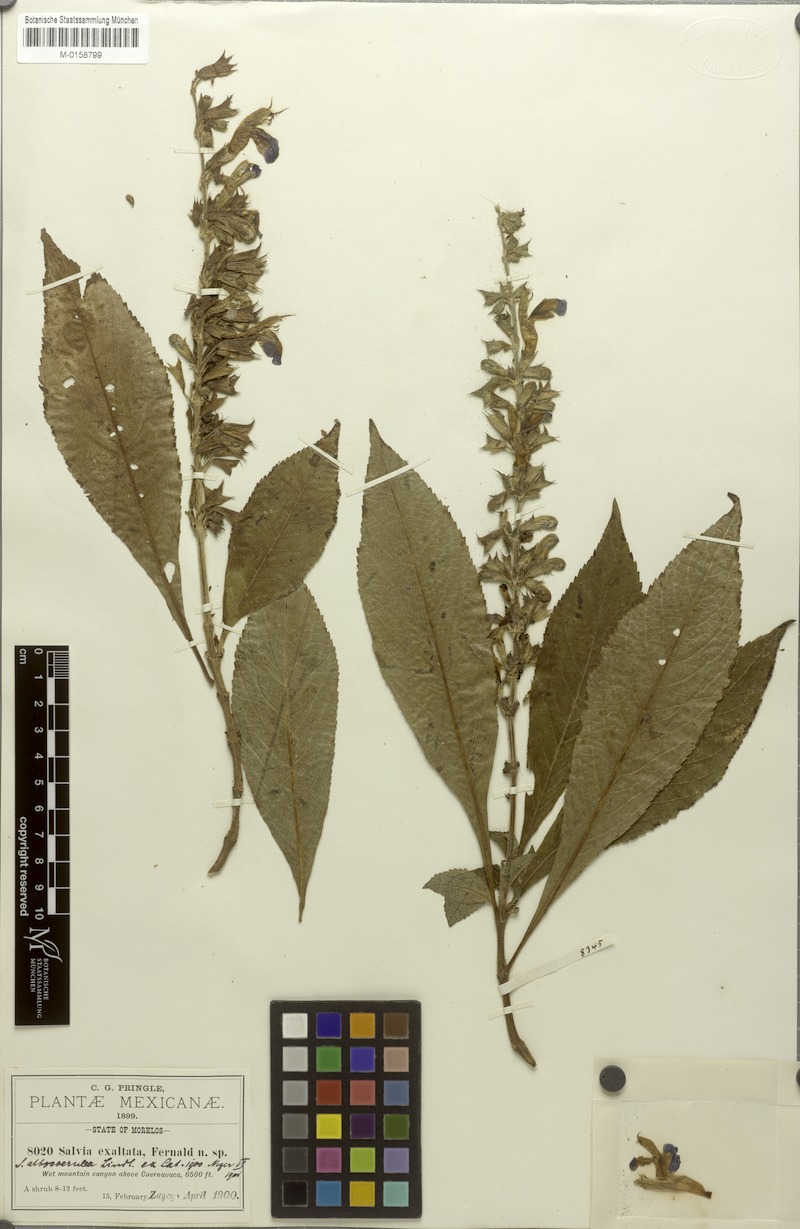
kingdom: Plantae
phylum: Tracheophyta
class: Magnoliopsida
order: Lamiales
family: Lamiaceae
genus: Salvia
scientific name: Salvia albocaerulea
